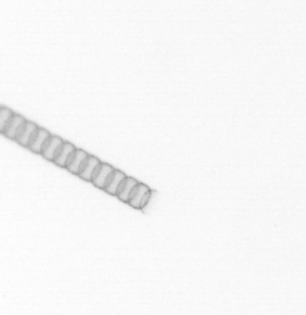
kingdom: Chromista
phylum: Ochrophyta
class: Bacillariophyceae
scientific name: Bacillariophyceae
